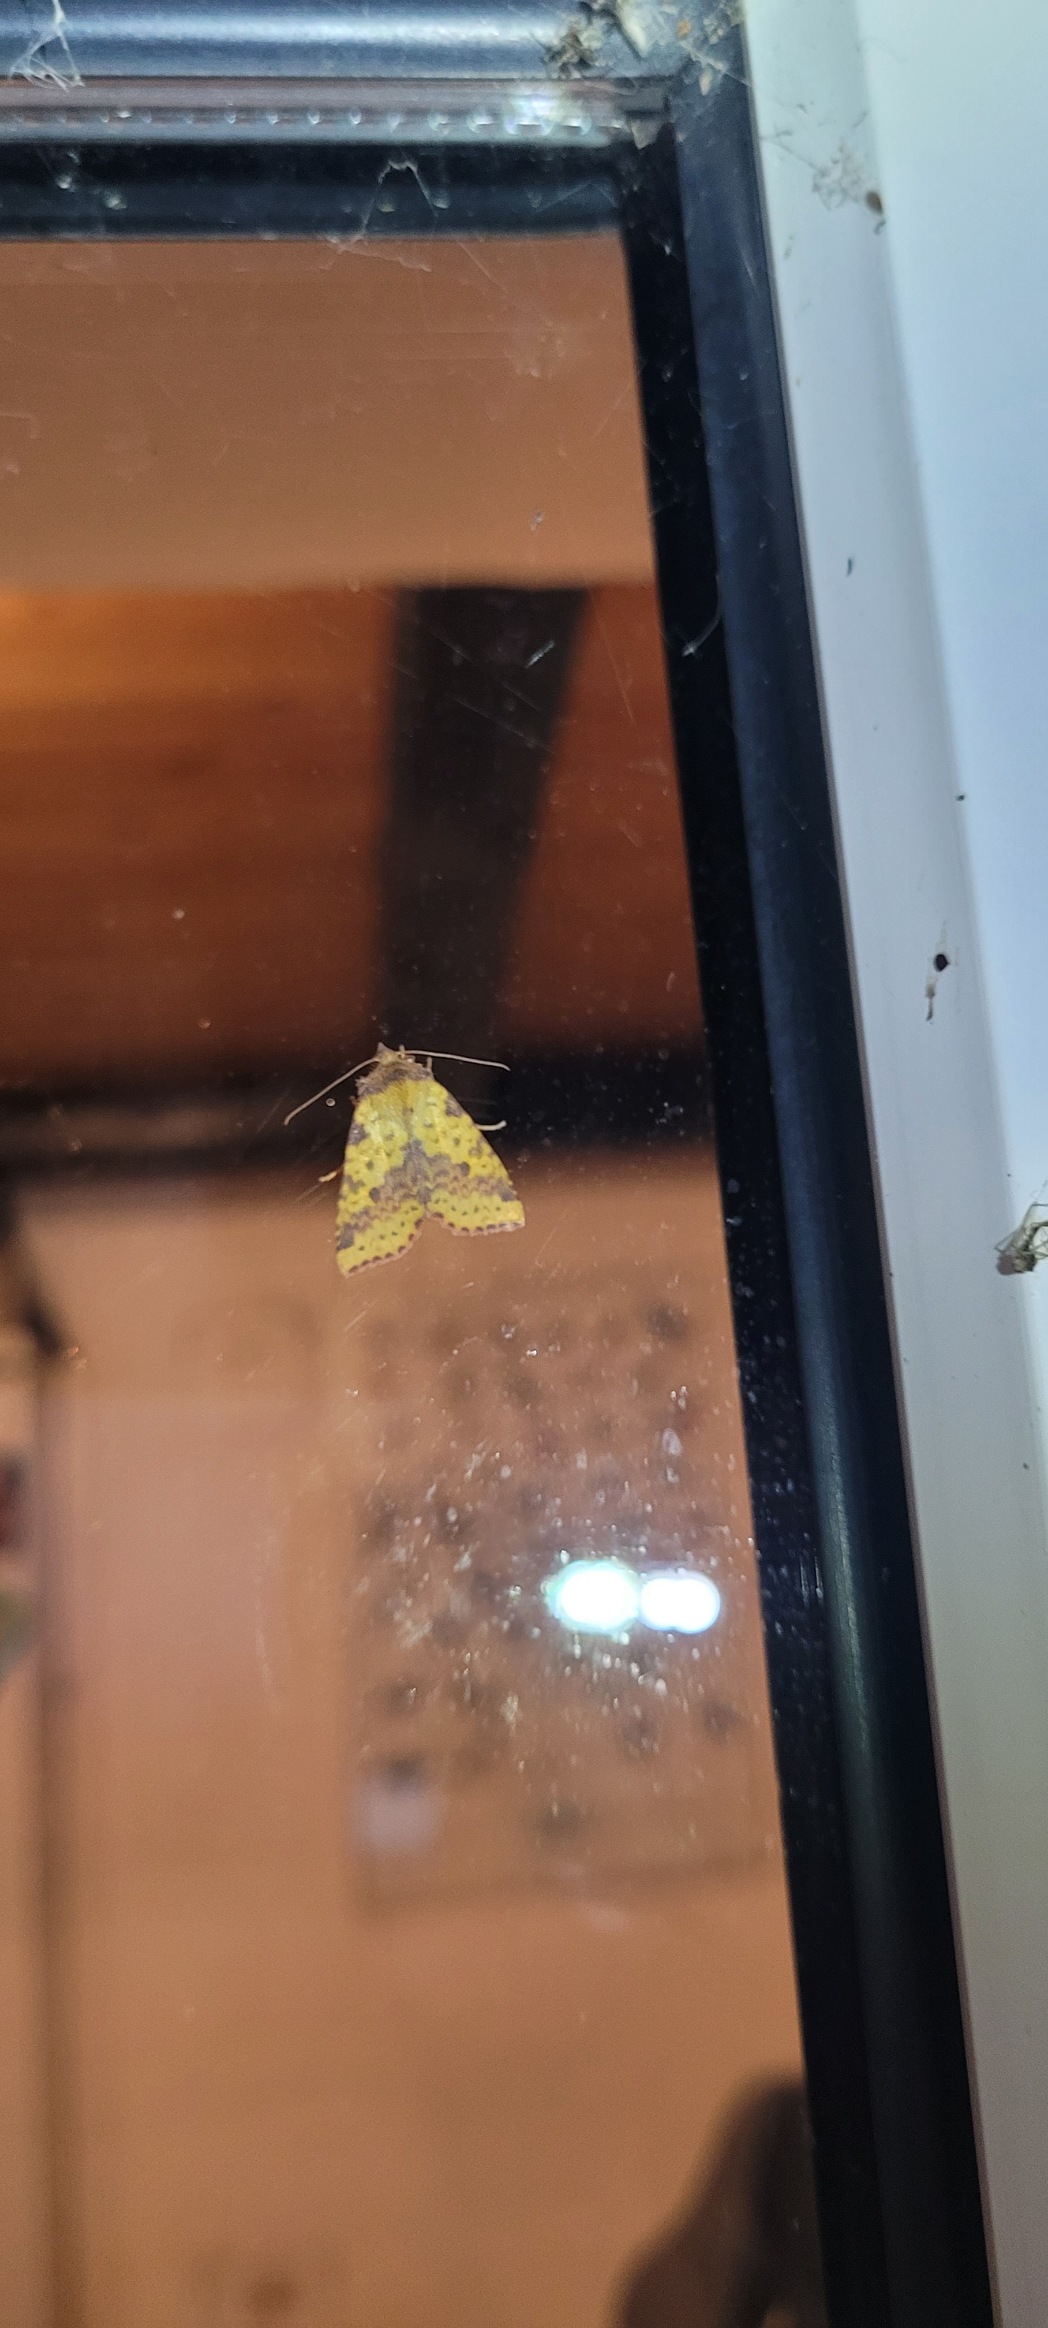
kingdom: Animalia
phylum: Arthropoda
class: Insecta
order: Lepidoptera
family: Noctuidae
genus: Xanthia
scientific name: Xanthia togata
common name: Toga-septemberugle
